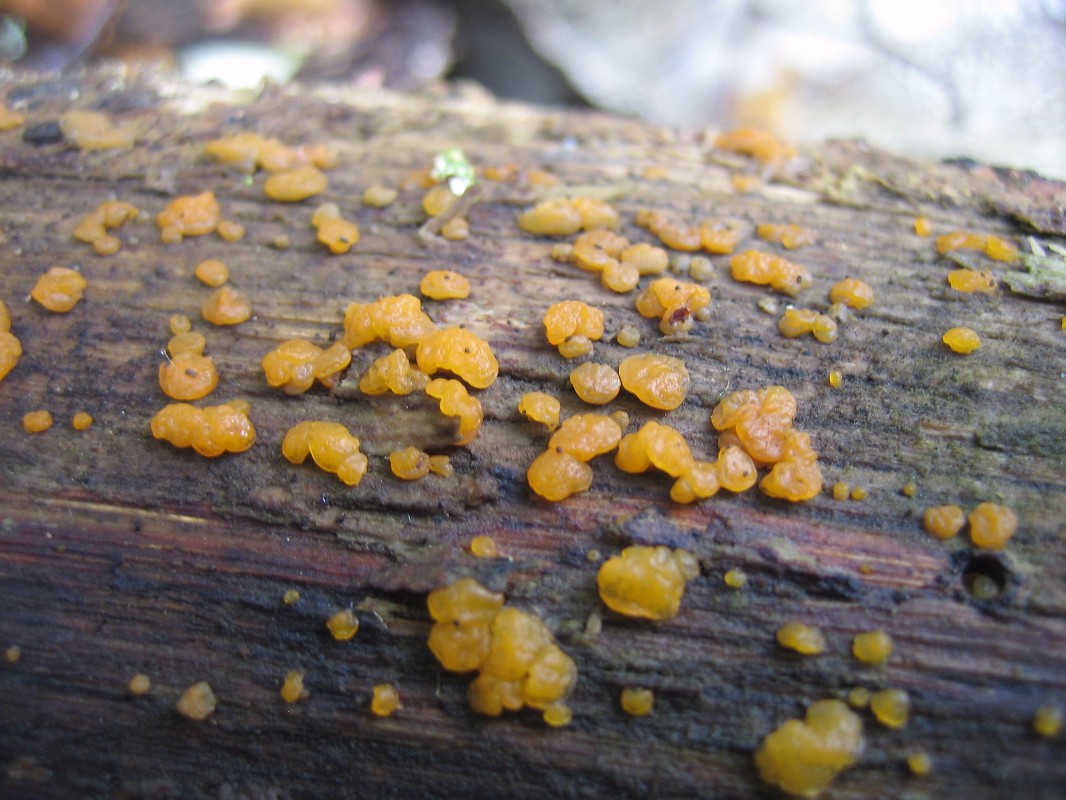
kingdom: Fungi
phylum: Basidiomycota
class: Dacrymycetes
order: Dacrymycetales
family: Dacrymycetaceae
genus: Dacrymyces
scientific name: Dacrymyces stillatus
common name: almindelig tåresvamp
